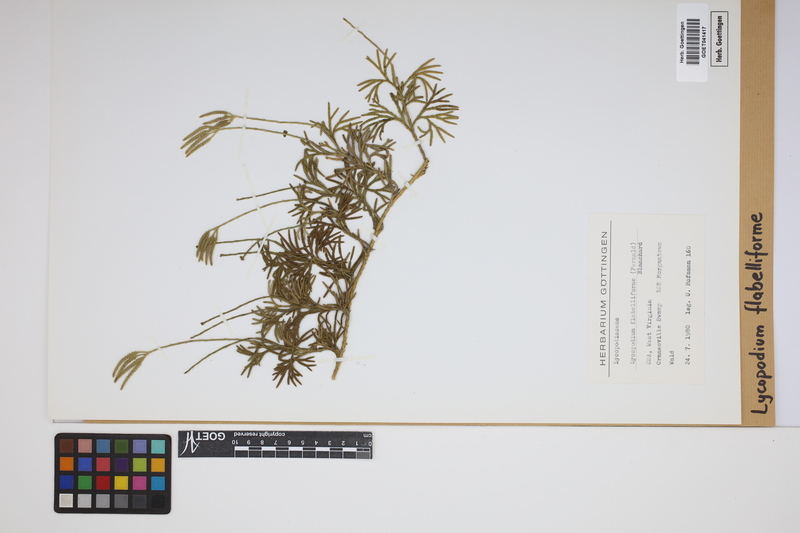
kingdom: Plantae
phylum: Tracheophyta
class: Lycopodiopsida
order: Lycopodiales
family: Lycopodiaceae
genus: Diphasiastrum
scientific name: Diphasiastrum digitatum
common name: Southern running-pine
